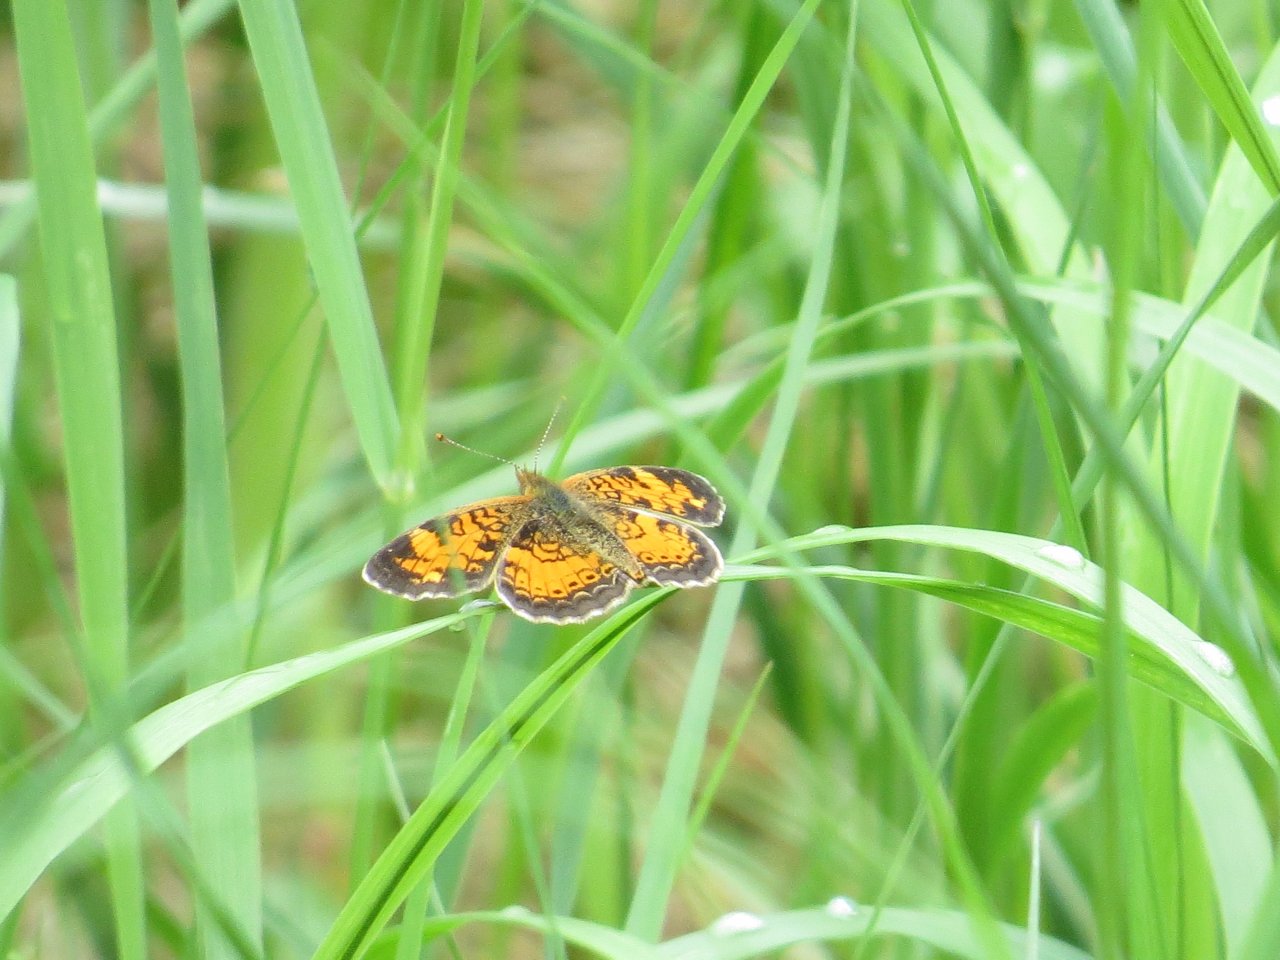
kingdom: Animalia
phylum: Arthropoda
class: Insecta
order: Lepidoptera
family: Nymphalidae
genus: Phyciodes
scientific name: Phyciodes tharos
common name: Northern Crescent
